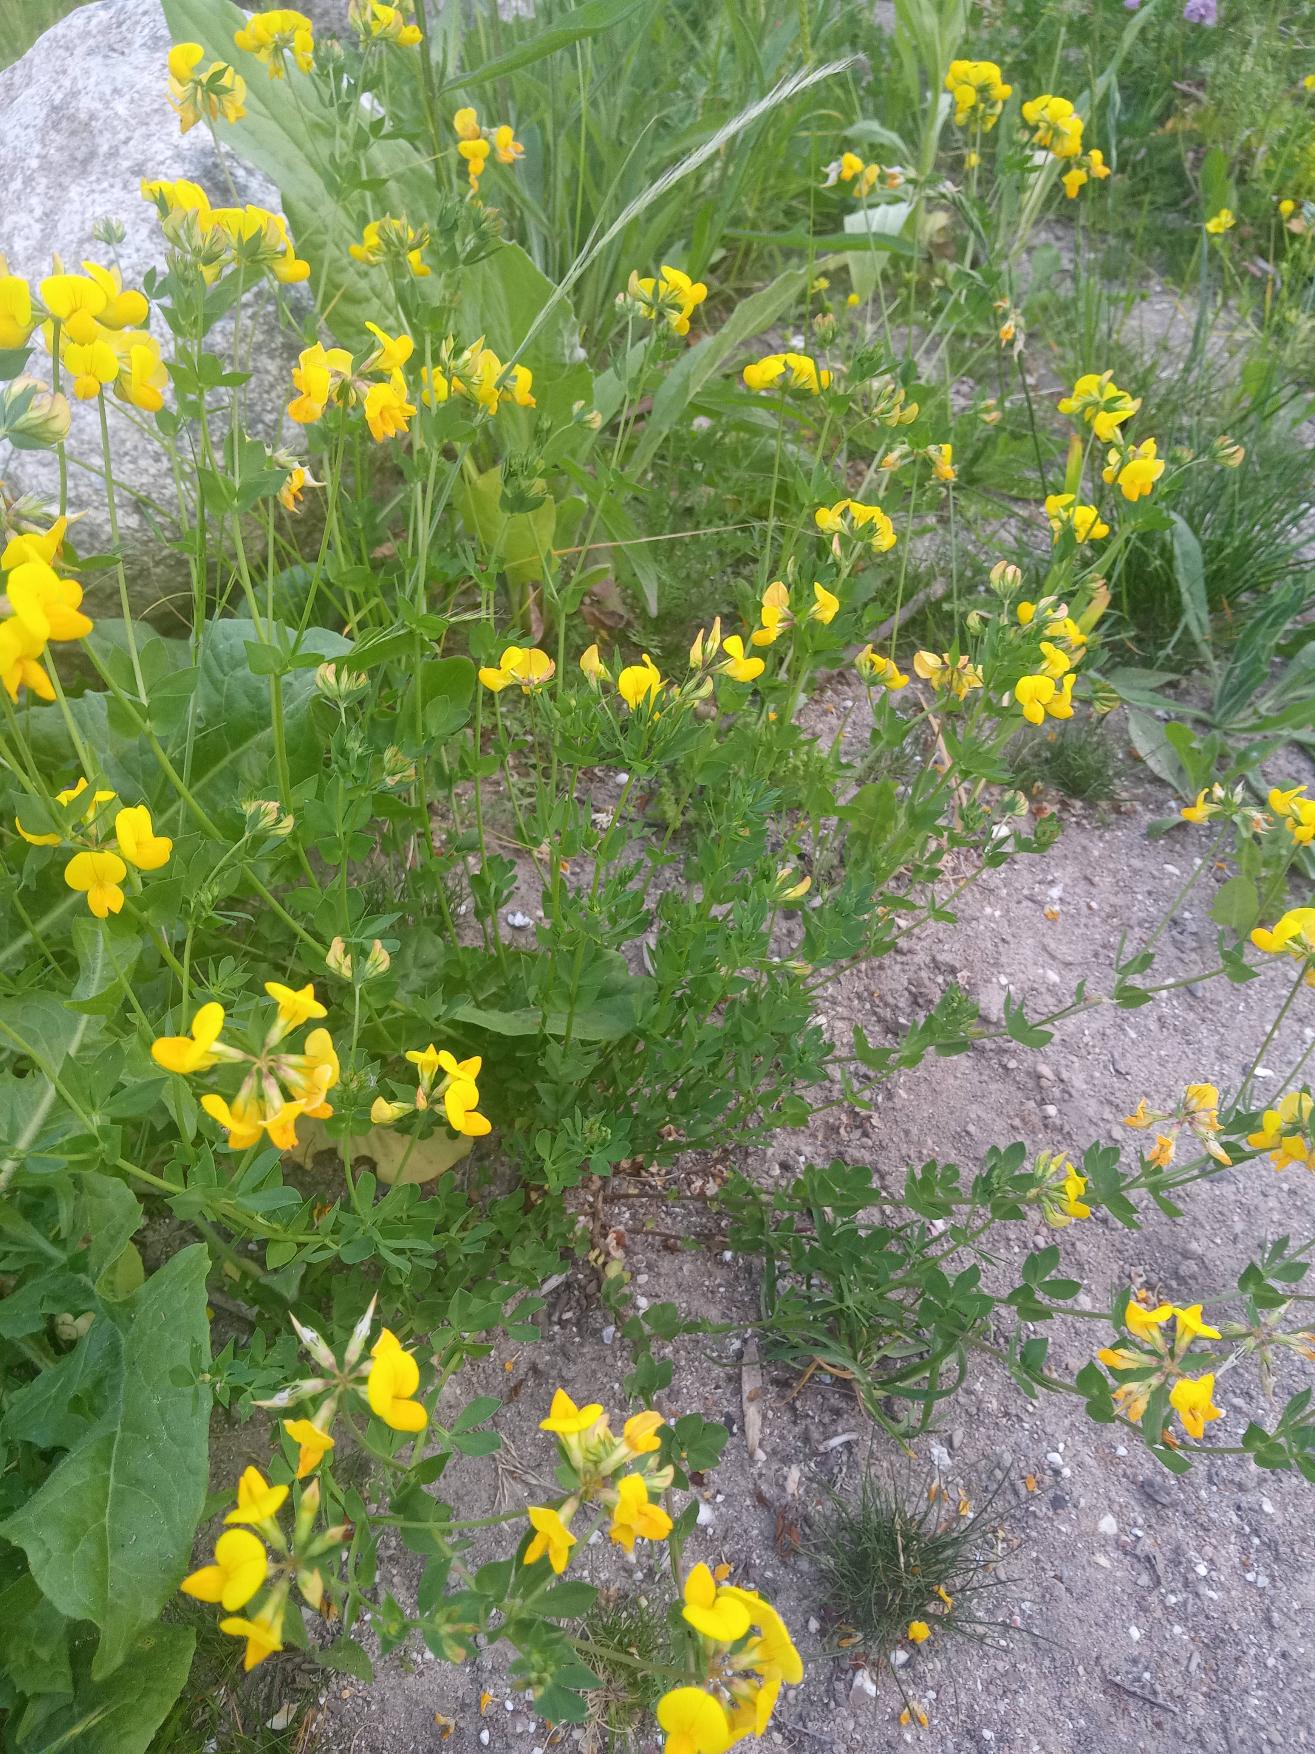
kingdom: Plantae
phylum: Tracheophyta
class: Magnoliopsida
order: Fabales
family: Fabaceae
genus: Lotus
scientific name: Lotus corniculatus
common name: Almindelig kællingetand
